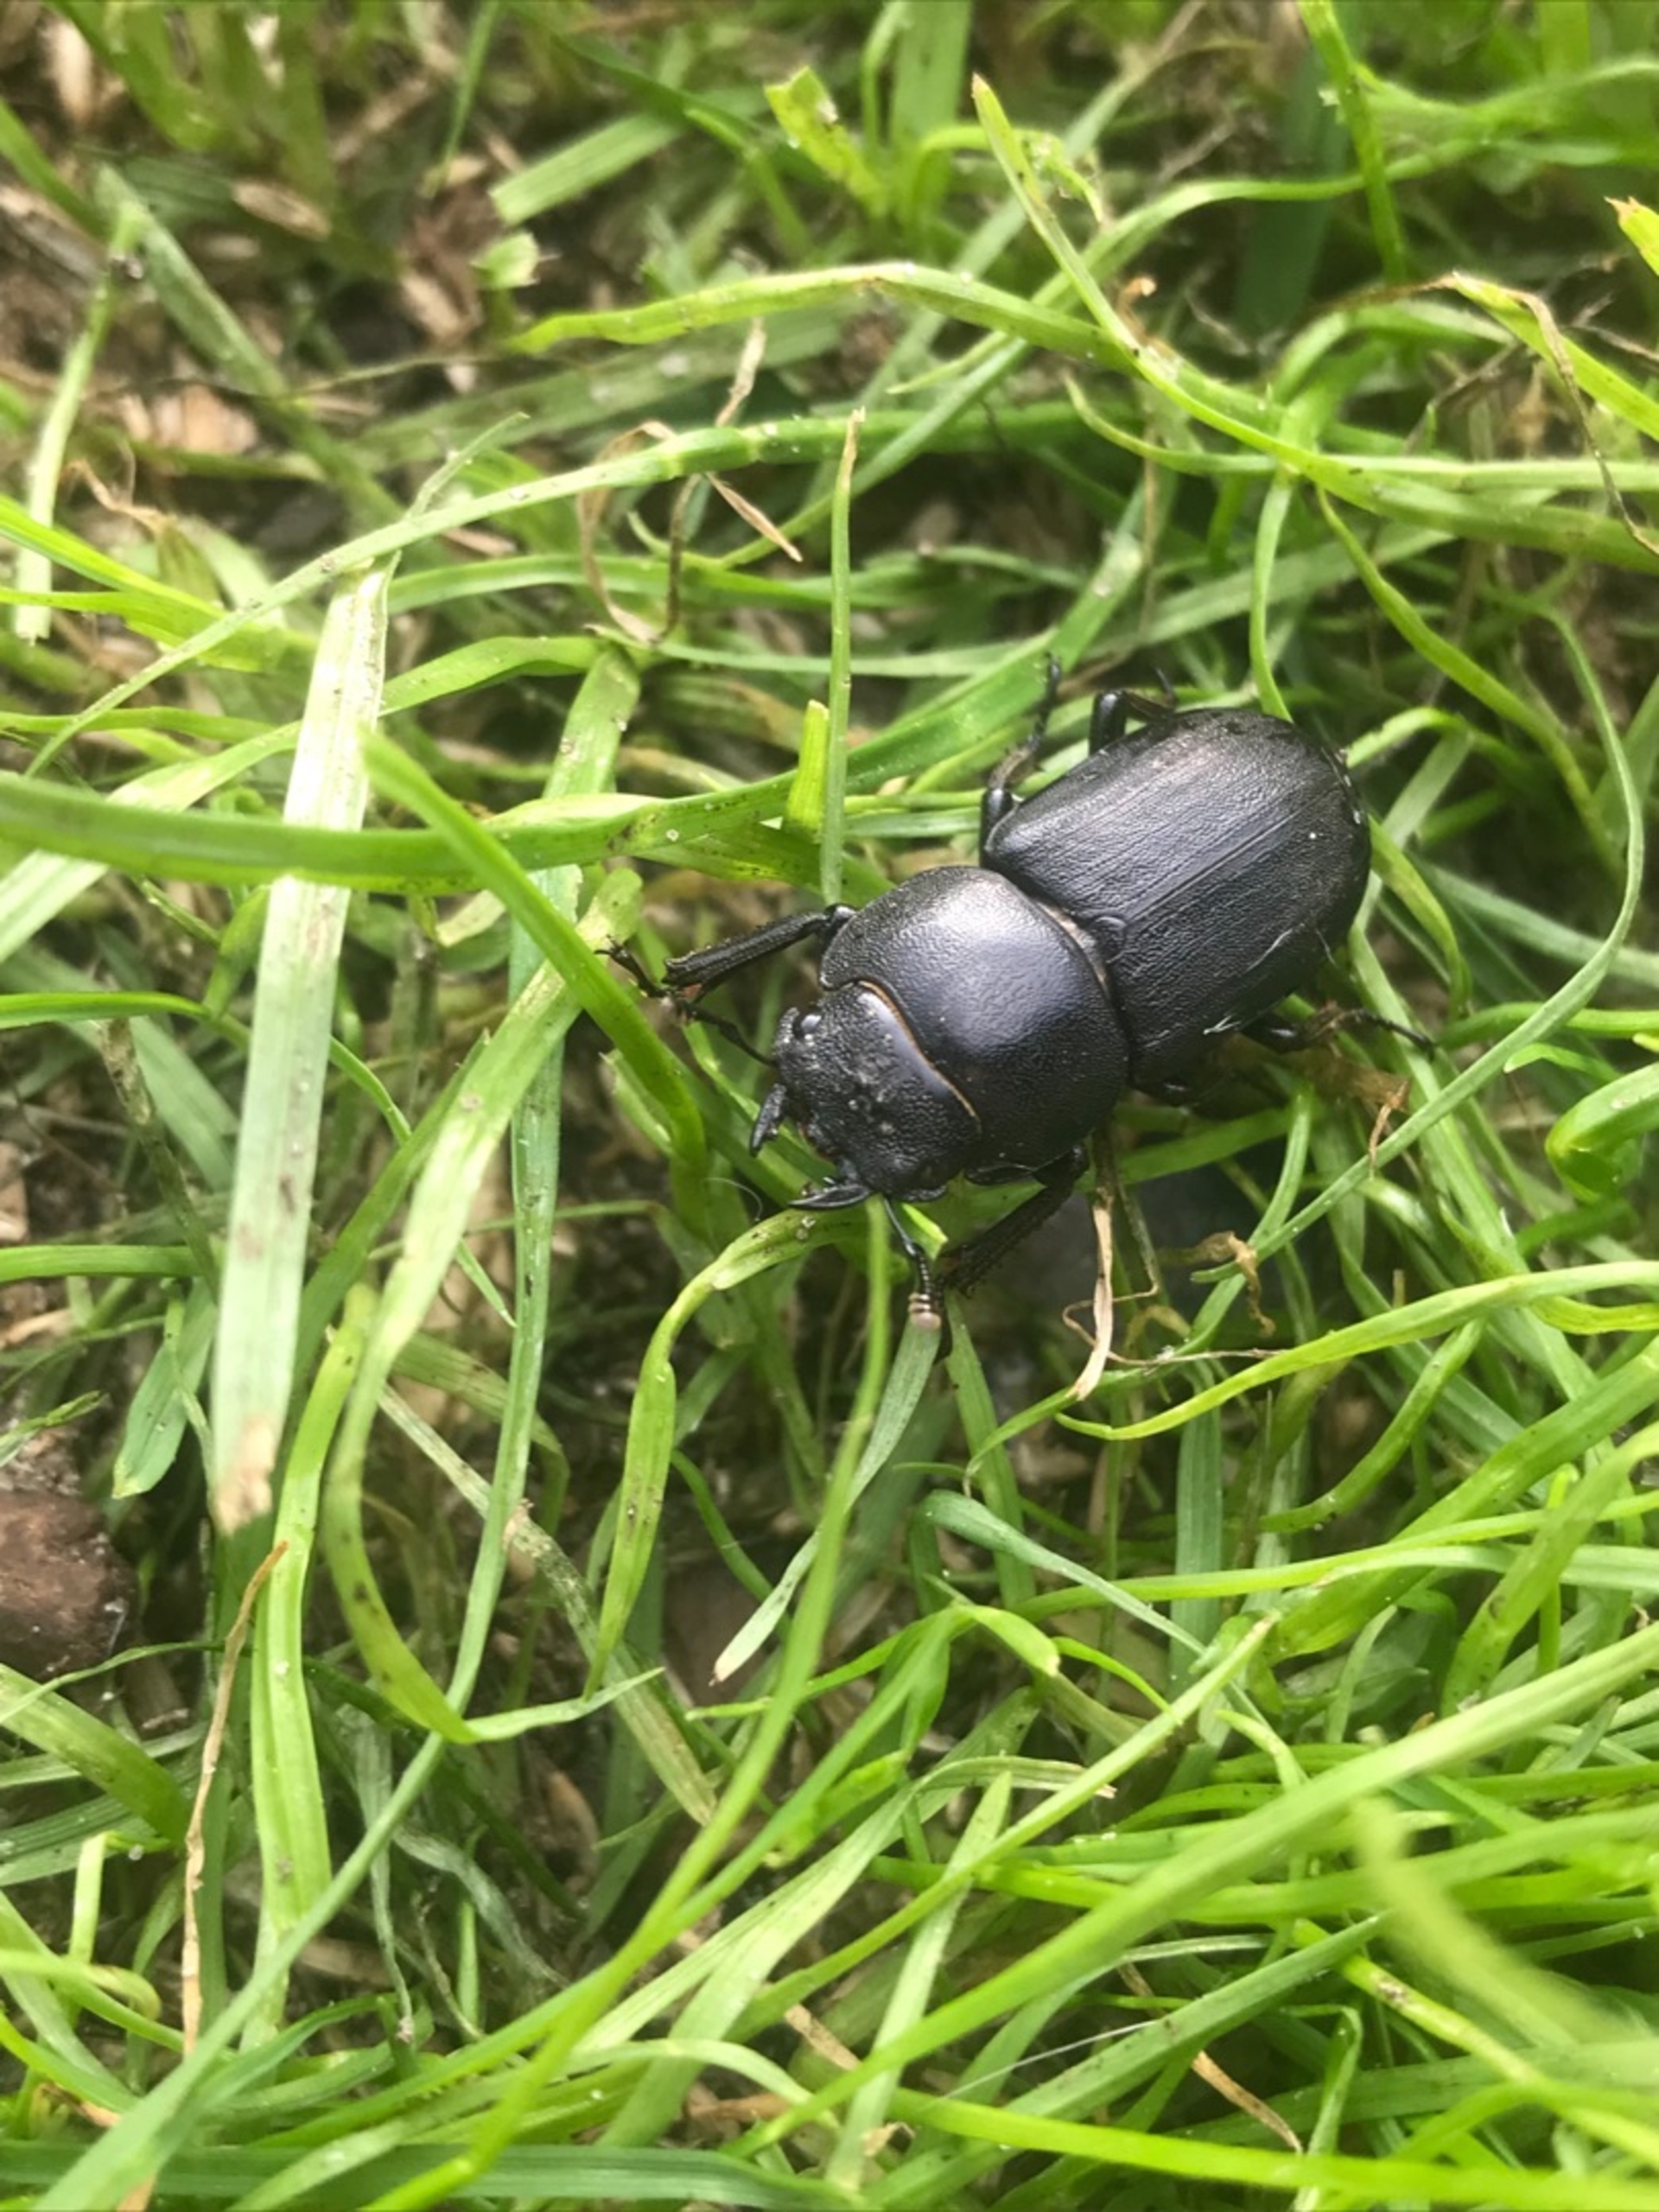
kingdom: Animalia
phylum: Arthropoda
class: Insecta
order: Coleoptera
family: Lucanidae
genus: Dorcus
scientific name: Dorcus parallelipipedus
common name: Bøghjort
